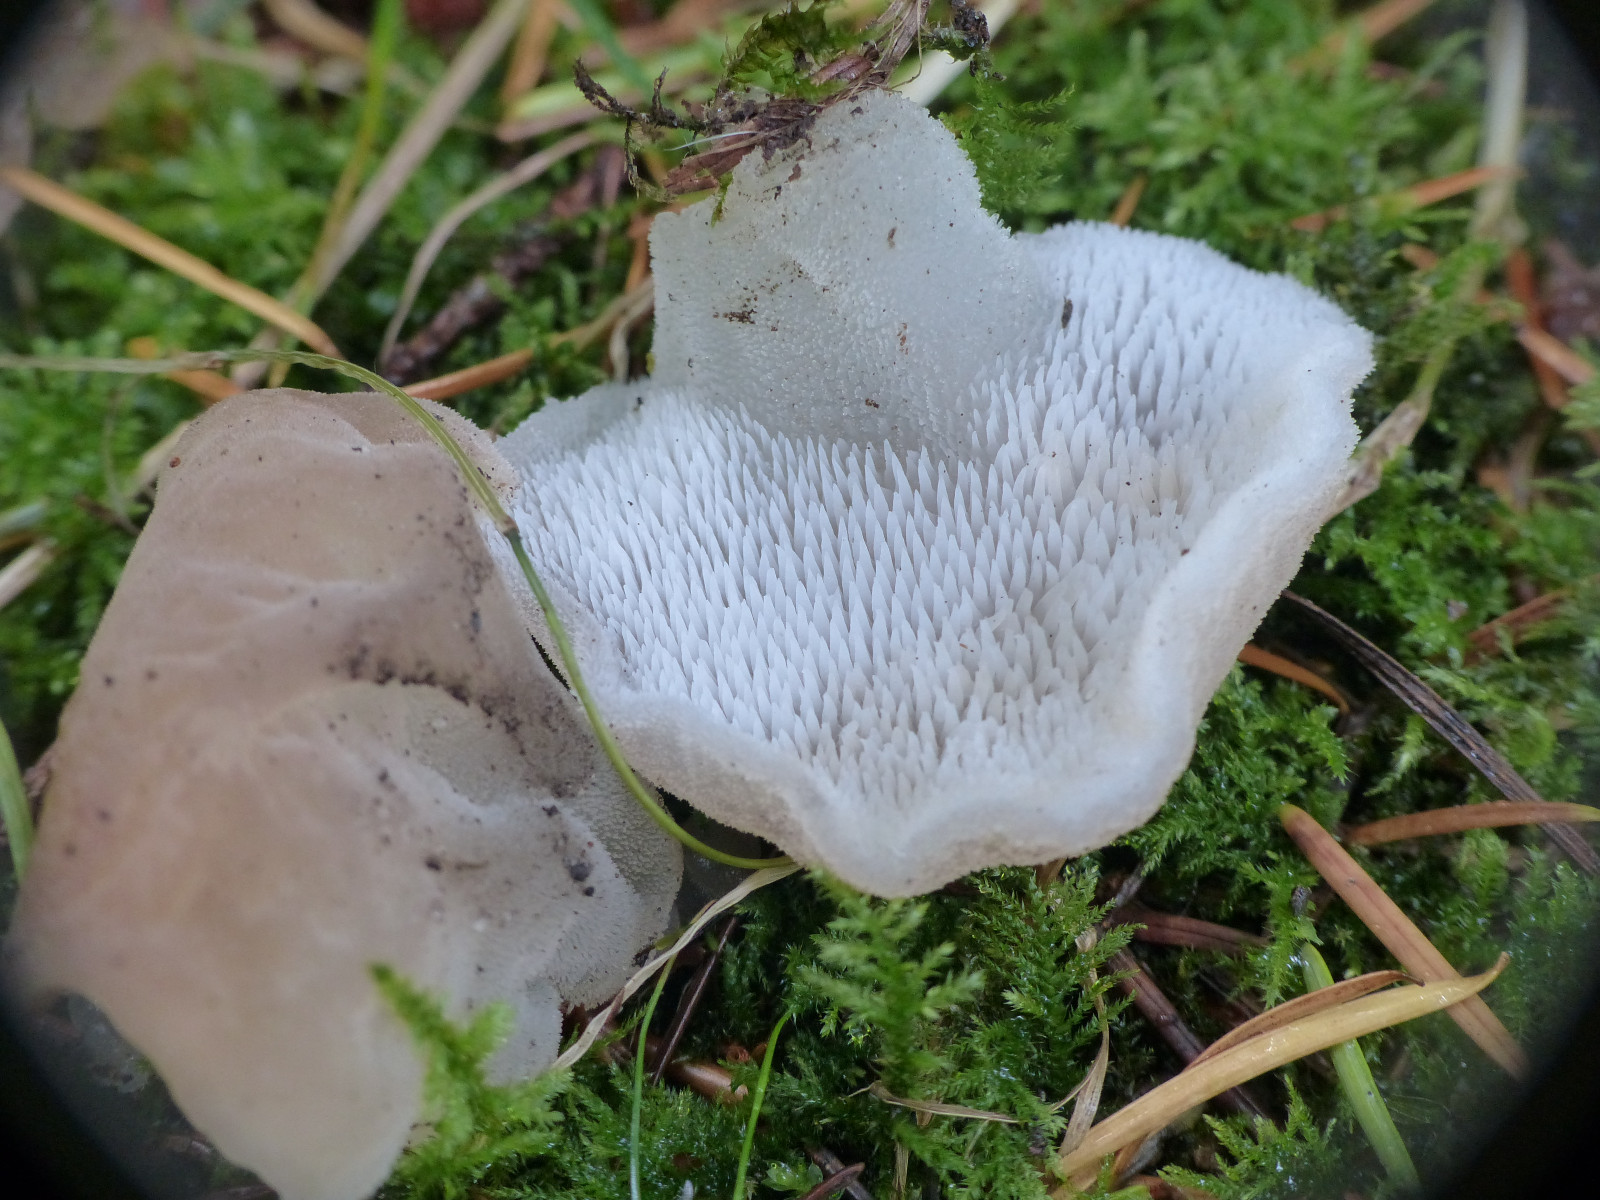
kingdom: Fungi
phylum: Basidiomycota
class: Agaricomycetes
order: Auriculariales
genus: Pseudohydnum
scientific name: Pseudohydnum gelatinosum
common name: bævretand
